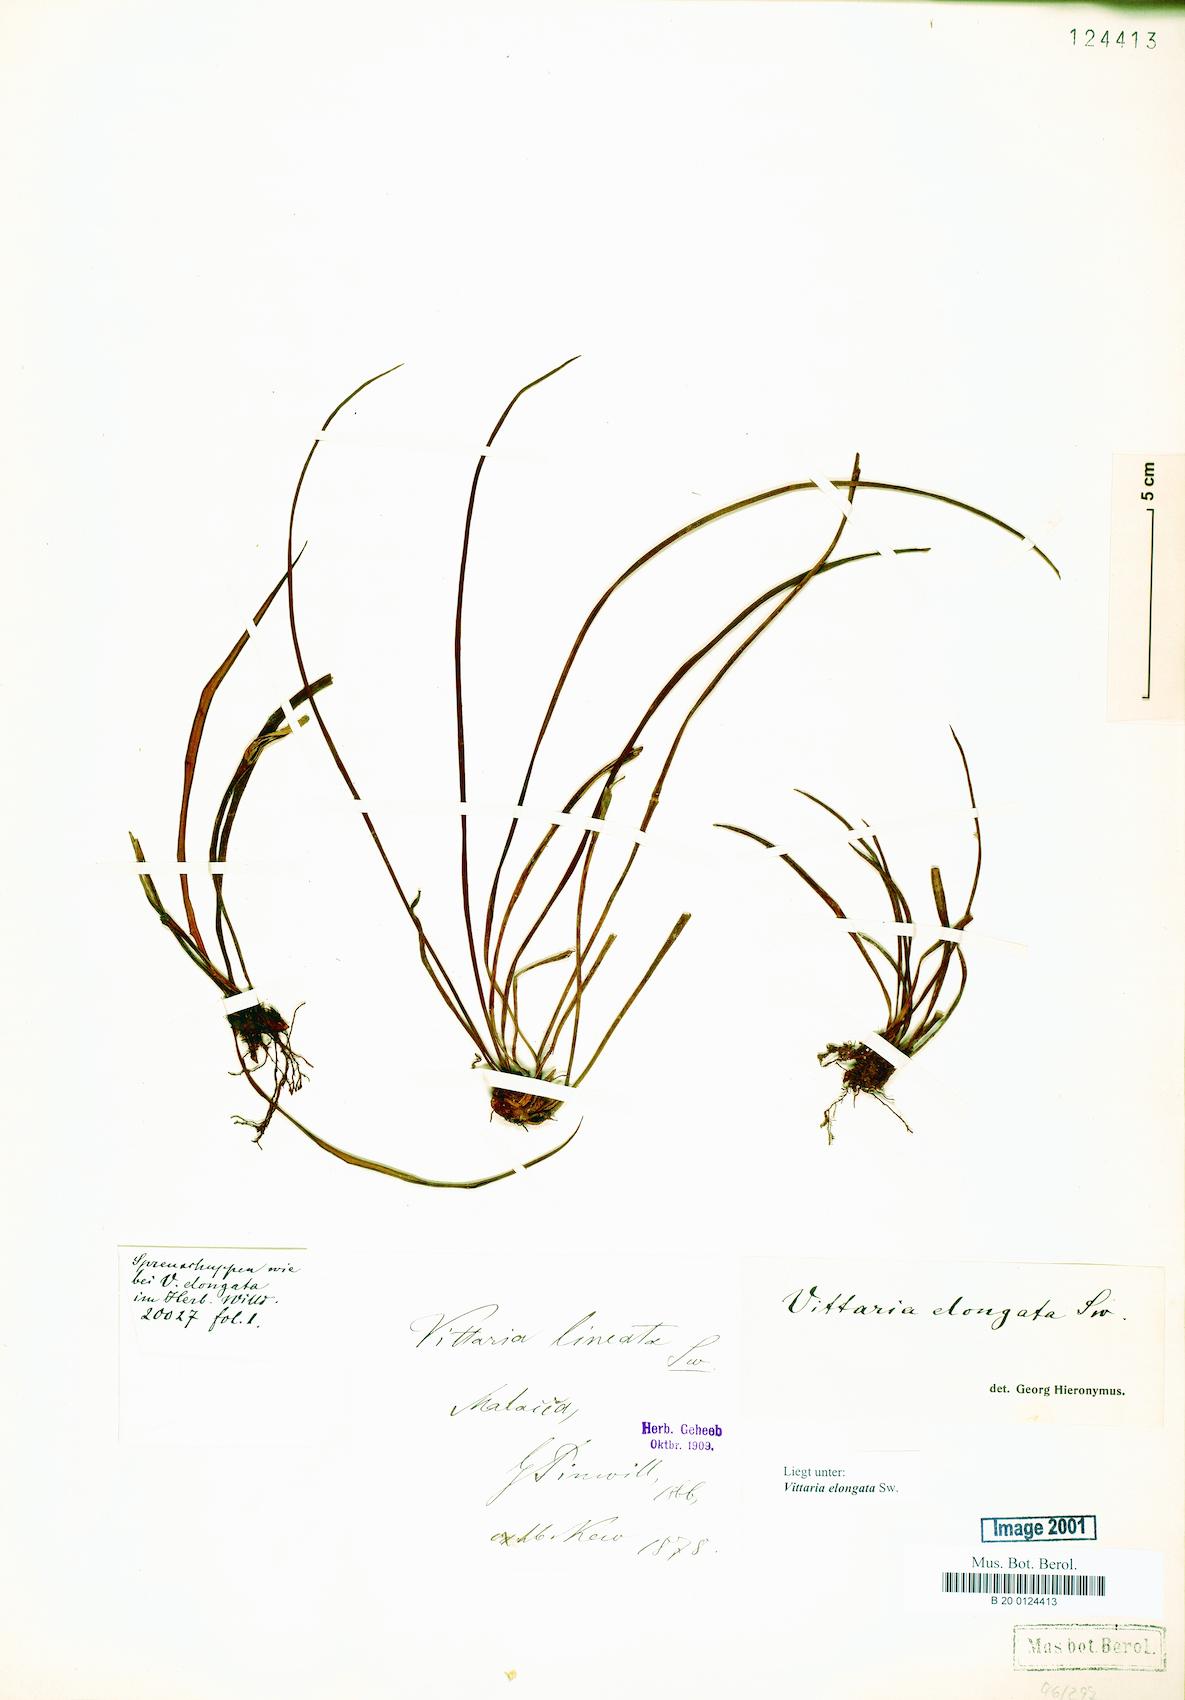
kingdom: Plantae
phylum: Tracheophyta
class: Polypodiopsida
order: Polypodiales
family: Pteridaceae
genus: Haplopteris
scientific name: Haplopteris elongata
